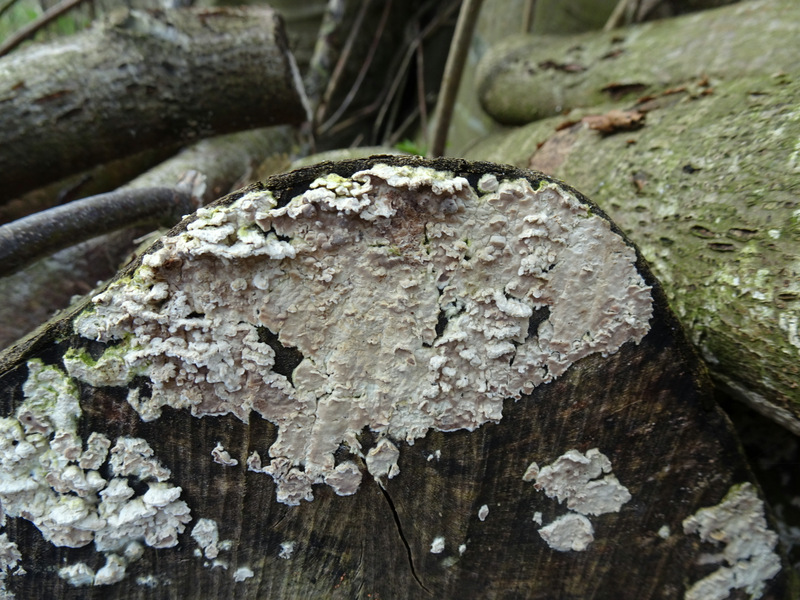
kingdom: Fungi
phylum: Basidiomycota
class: Agaricomycetes
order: Agaricales
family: Physalacriaceae
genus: Cylindrobasidium
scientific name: Cylindrobasidium evolvens
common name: sprækkehinde
